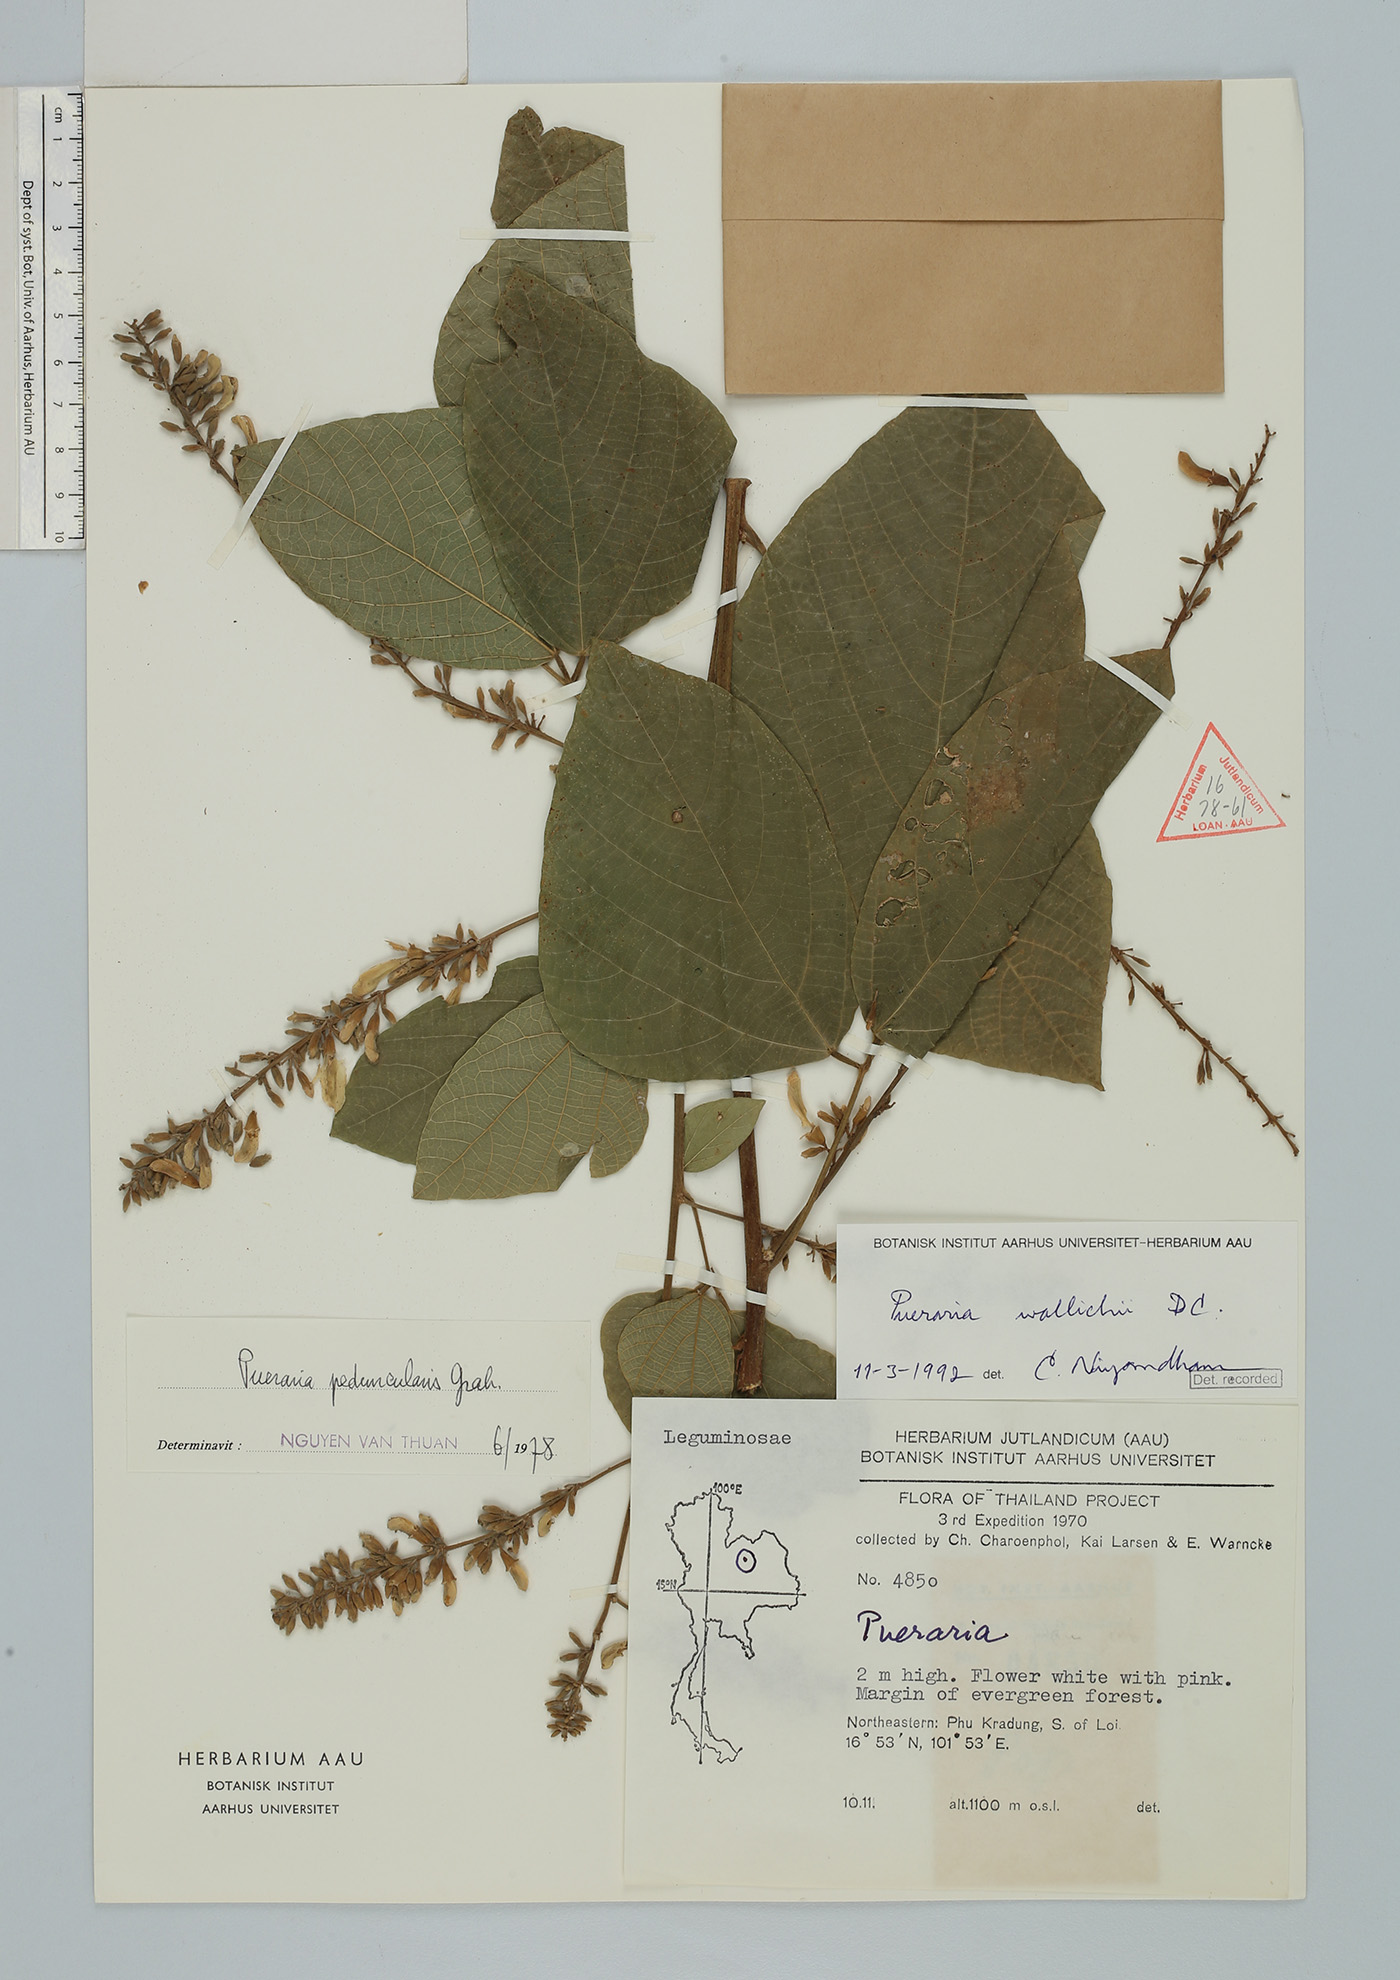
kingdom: Plantae
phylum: Tracheophyta
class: Magnoliopsida
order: Fabales
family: Fabaceae
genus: Haymondia
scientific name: Haymondia wallichii
